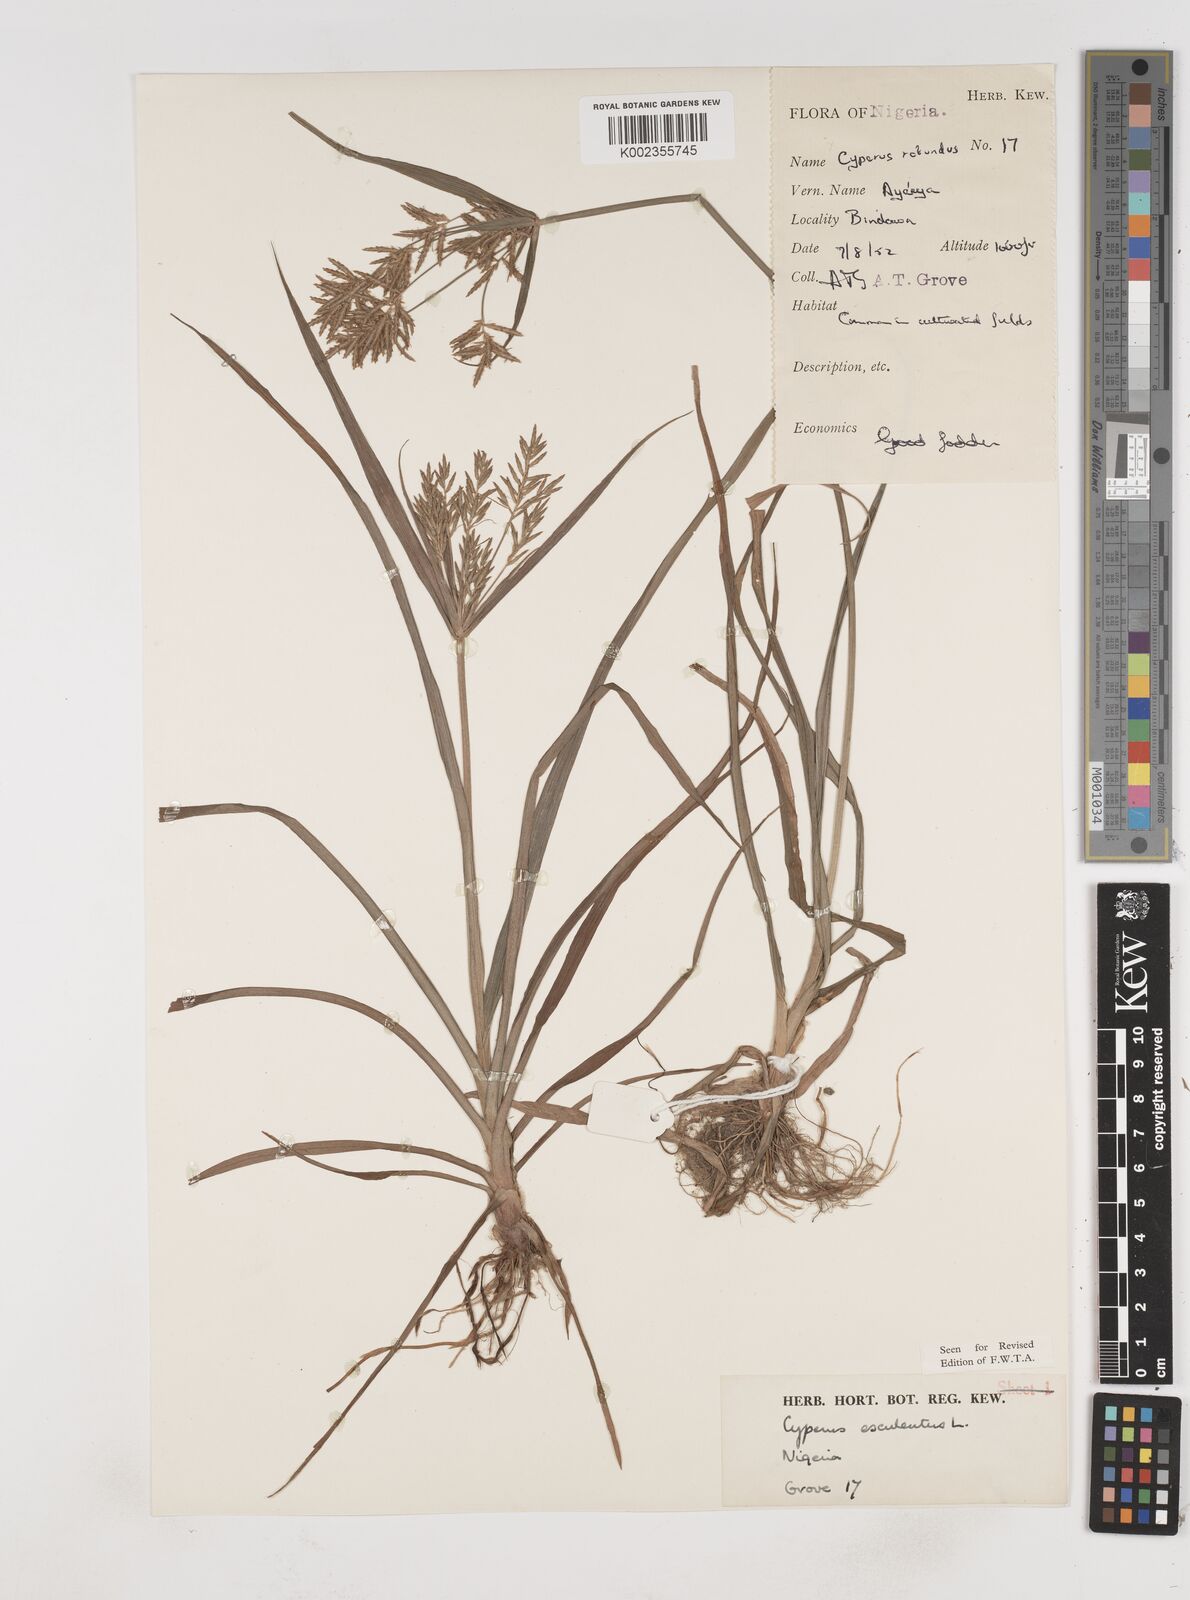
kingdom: Plantae
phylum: Tracheophyta
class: Liliopsida
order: Poales
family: Cyperaceae
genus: Cyperus
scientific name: Cyperus esculentus
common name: Yellow nutsedge
